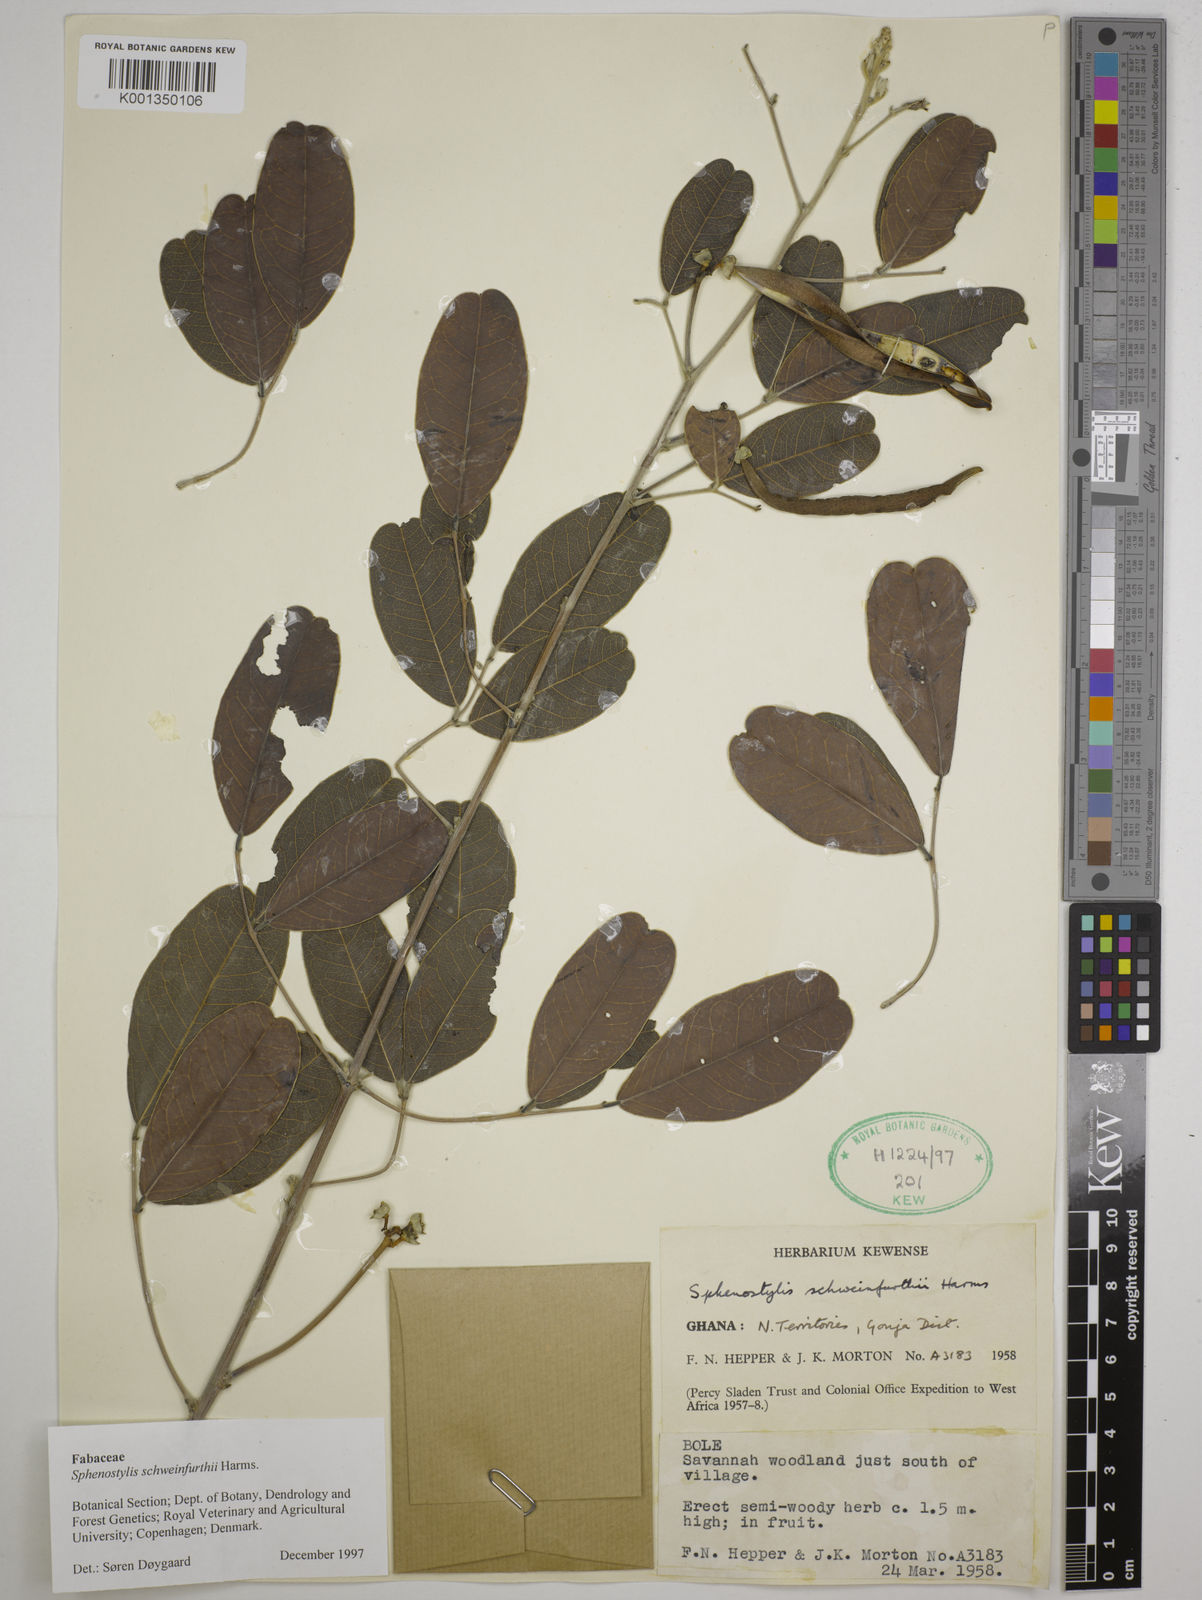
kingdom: Plantae
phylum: Tracheophyta
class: Magnoliopsida
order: Fabales
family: Fabaceae
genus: Sphenostylis
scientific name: Sphenostylis schweinfurthii
